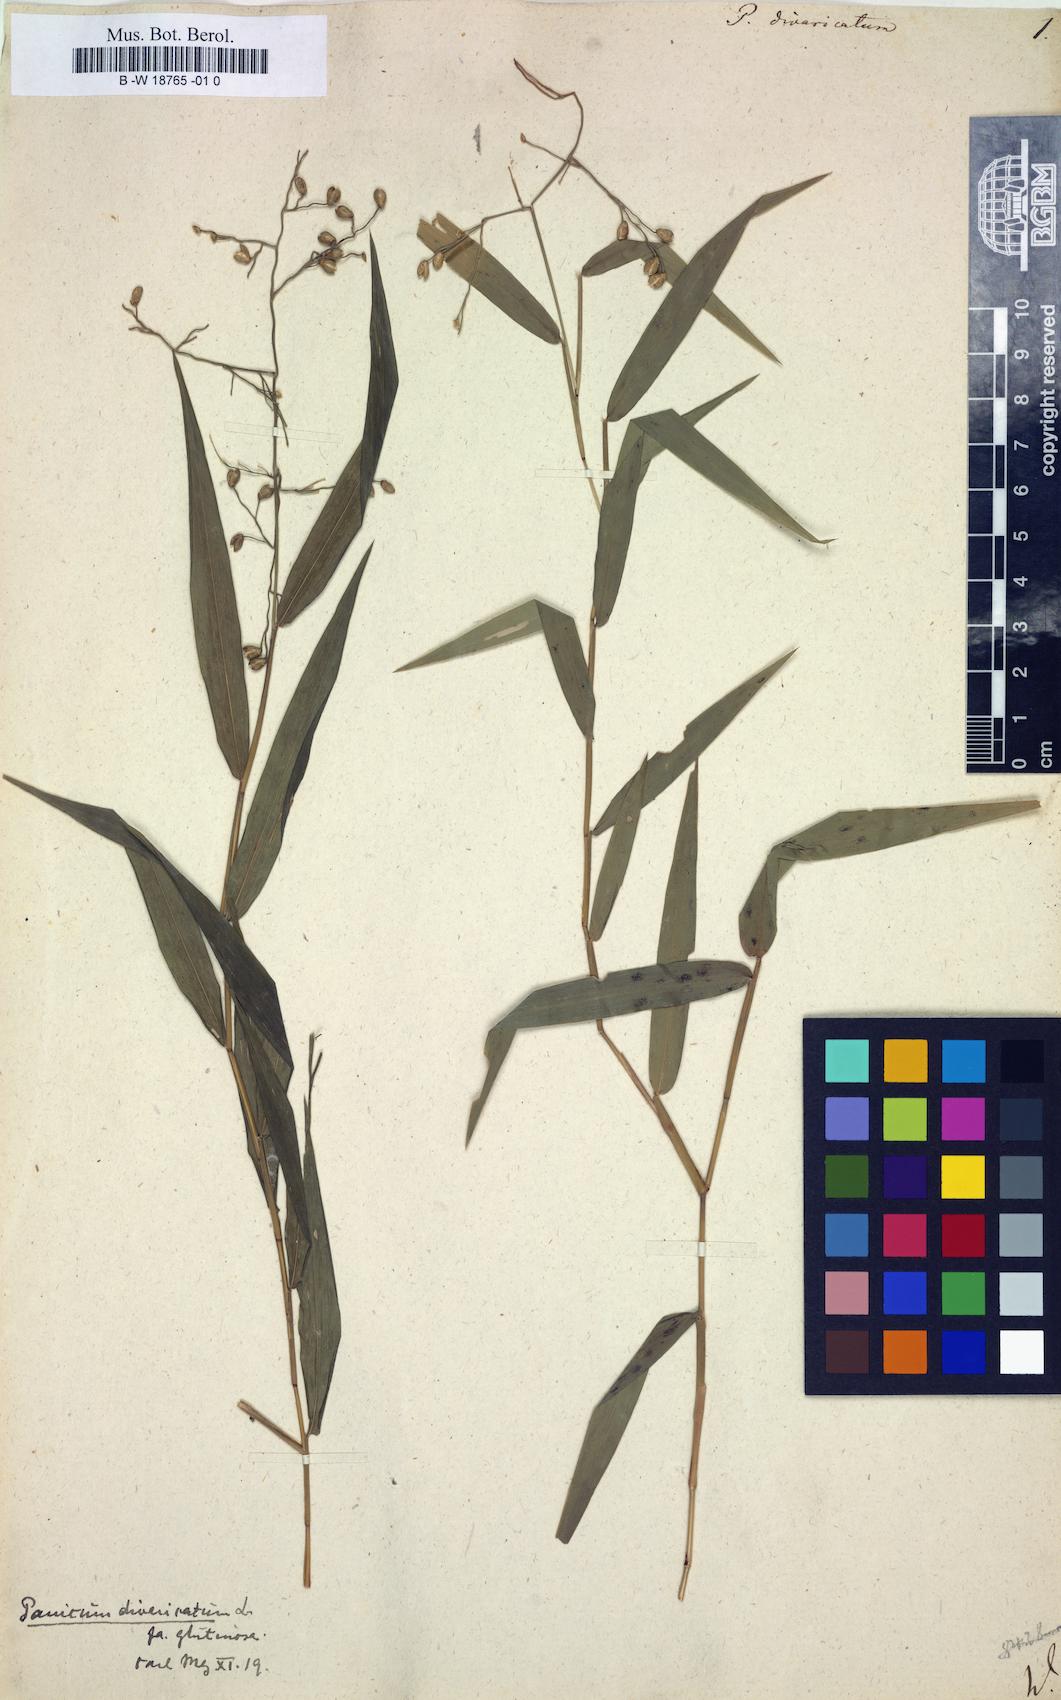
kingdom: Plantae
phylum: Tracheophyta
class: Liliopsida
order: Poales
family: Poaceae
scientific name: Poaceae
